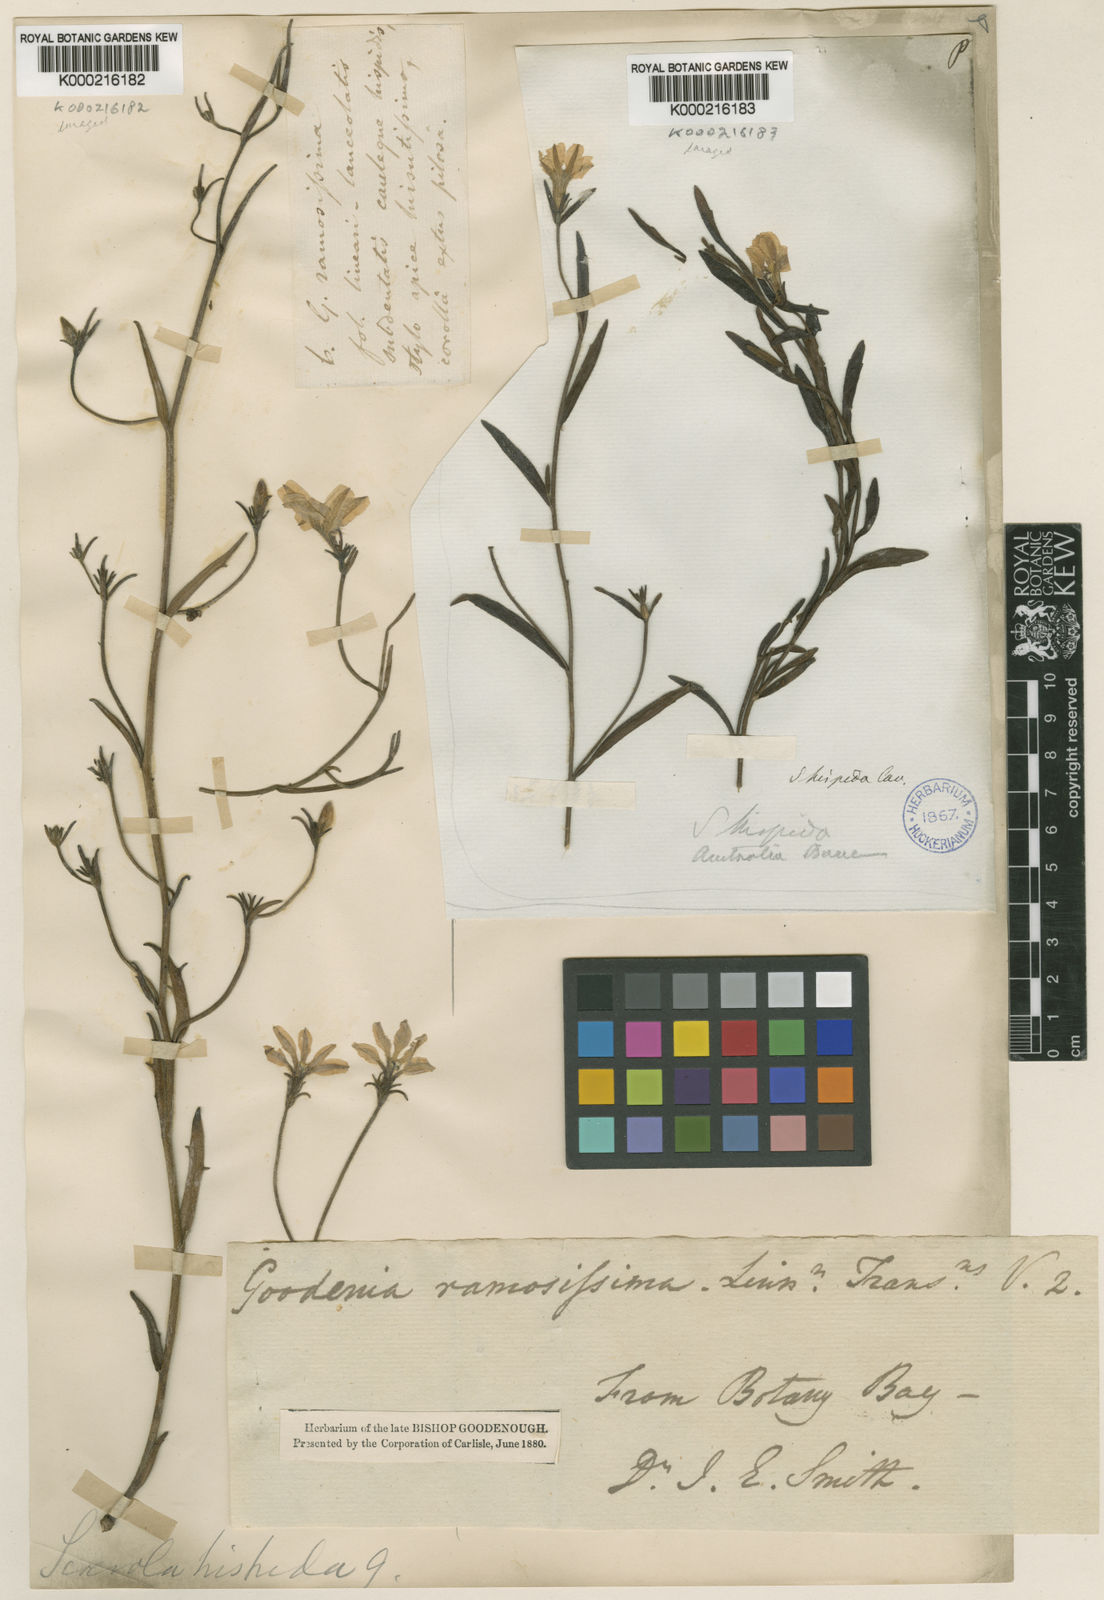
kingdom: Plantae
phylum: Tracheophyta
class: Magnoliopsida
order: Asterales
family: Goodeniaceae
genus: Scaevola
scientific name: Scaevola
